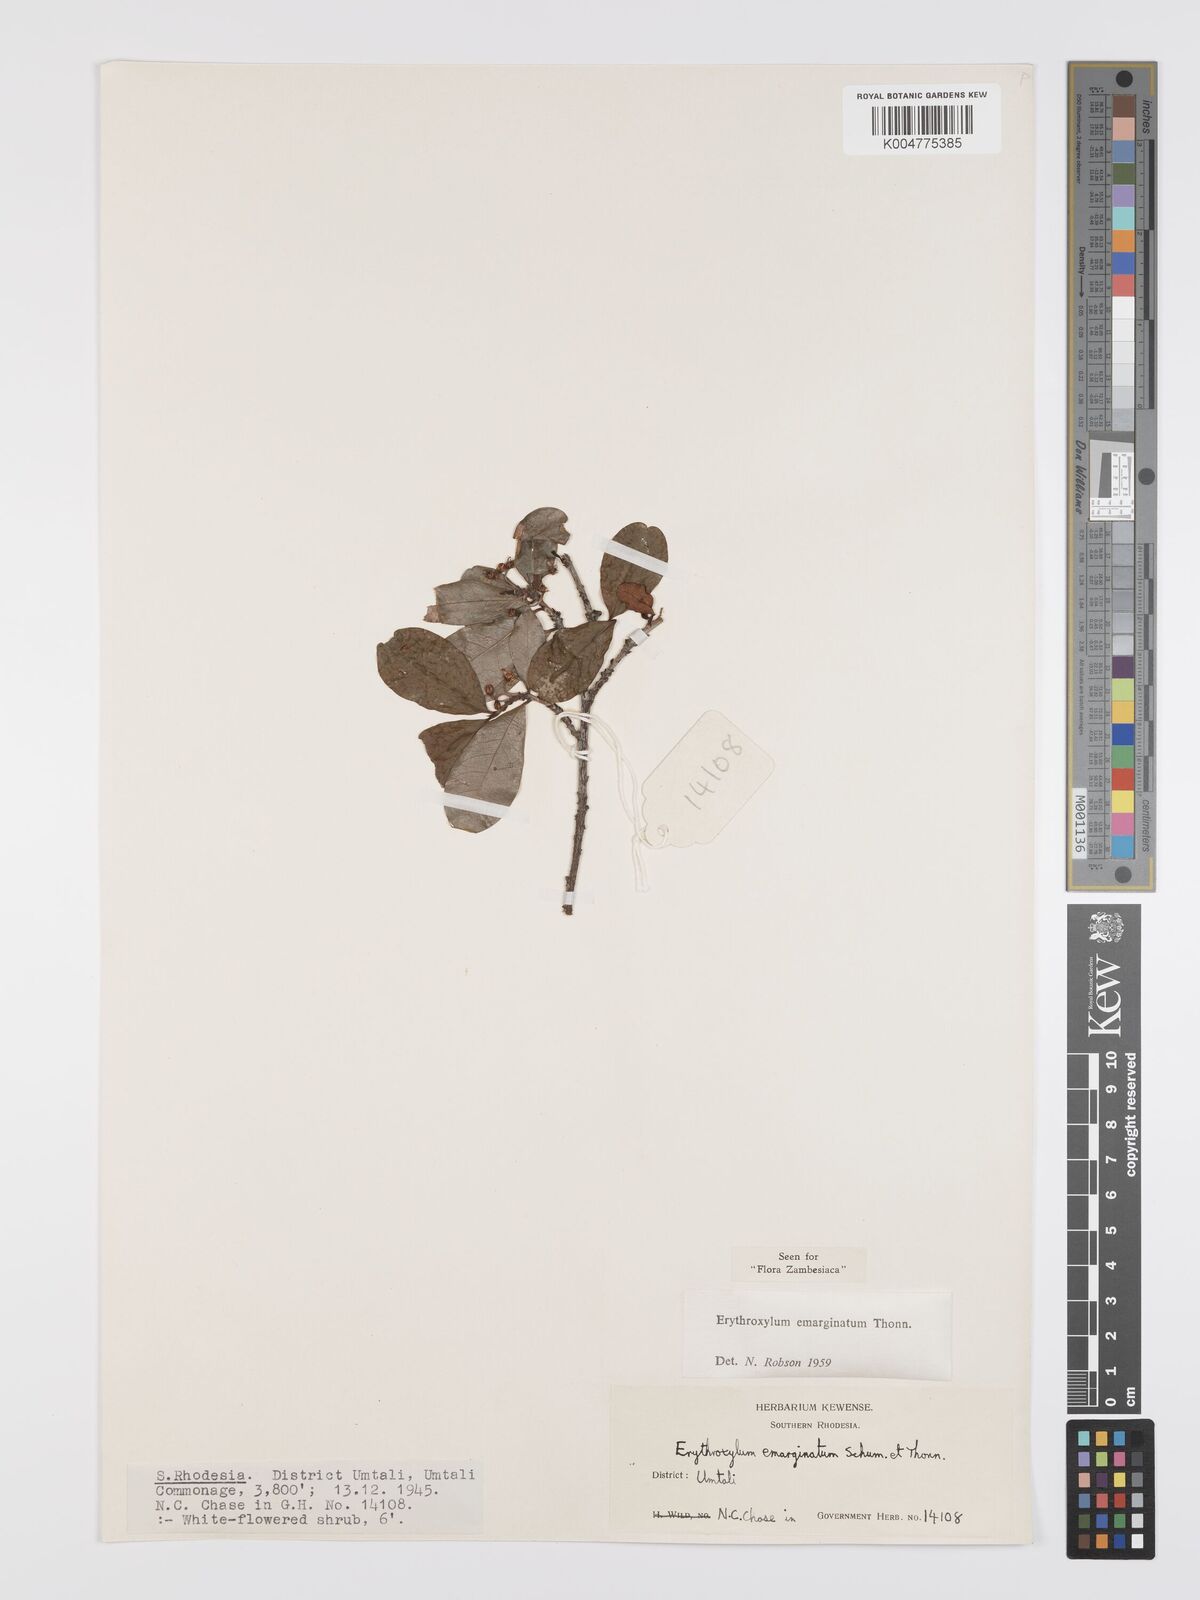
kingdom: Plantae
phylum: Tracheophyta
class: Magnoliopsida
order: Malpighiales
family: Erythroxylaceae
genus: Erythroxylum
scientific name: Erythroxylum emarginatum
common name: African coca-tree
